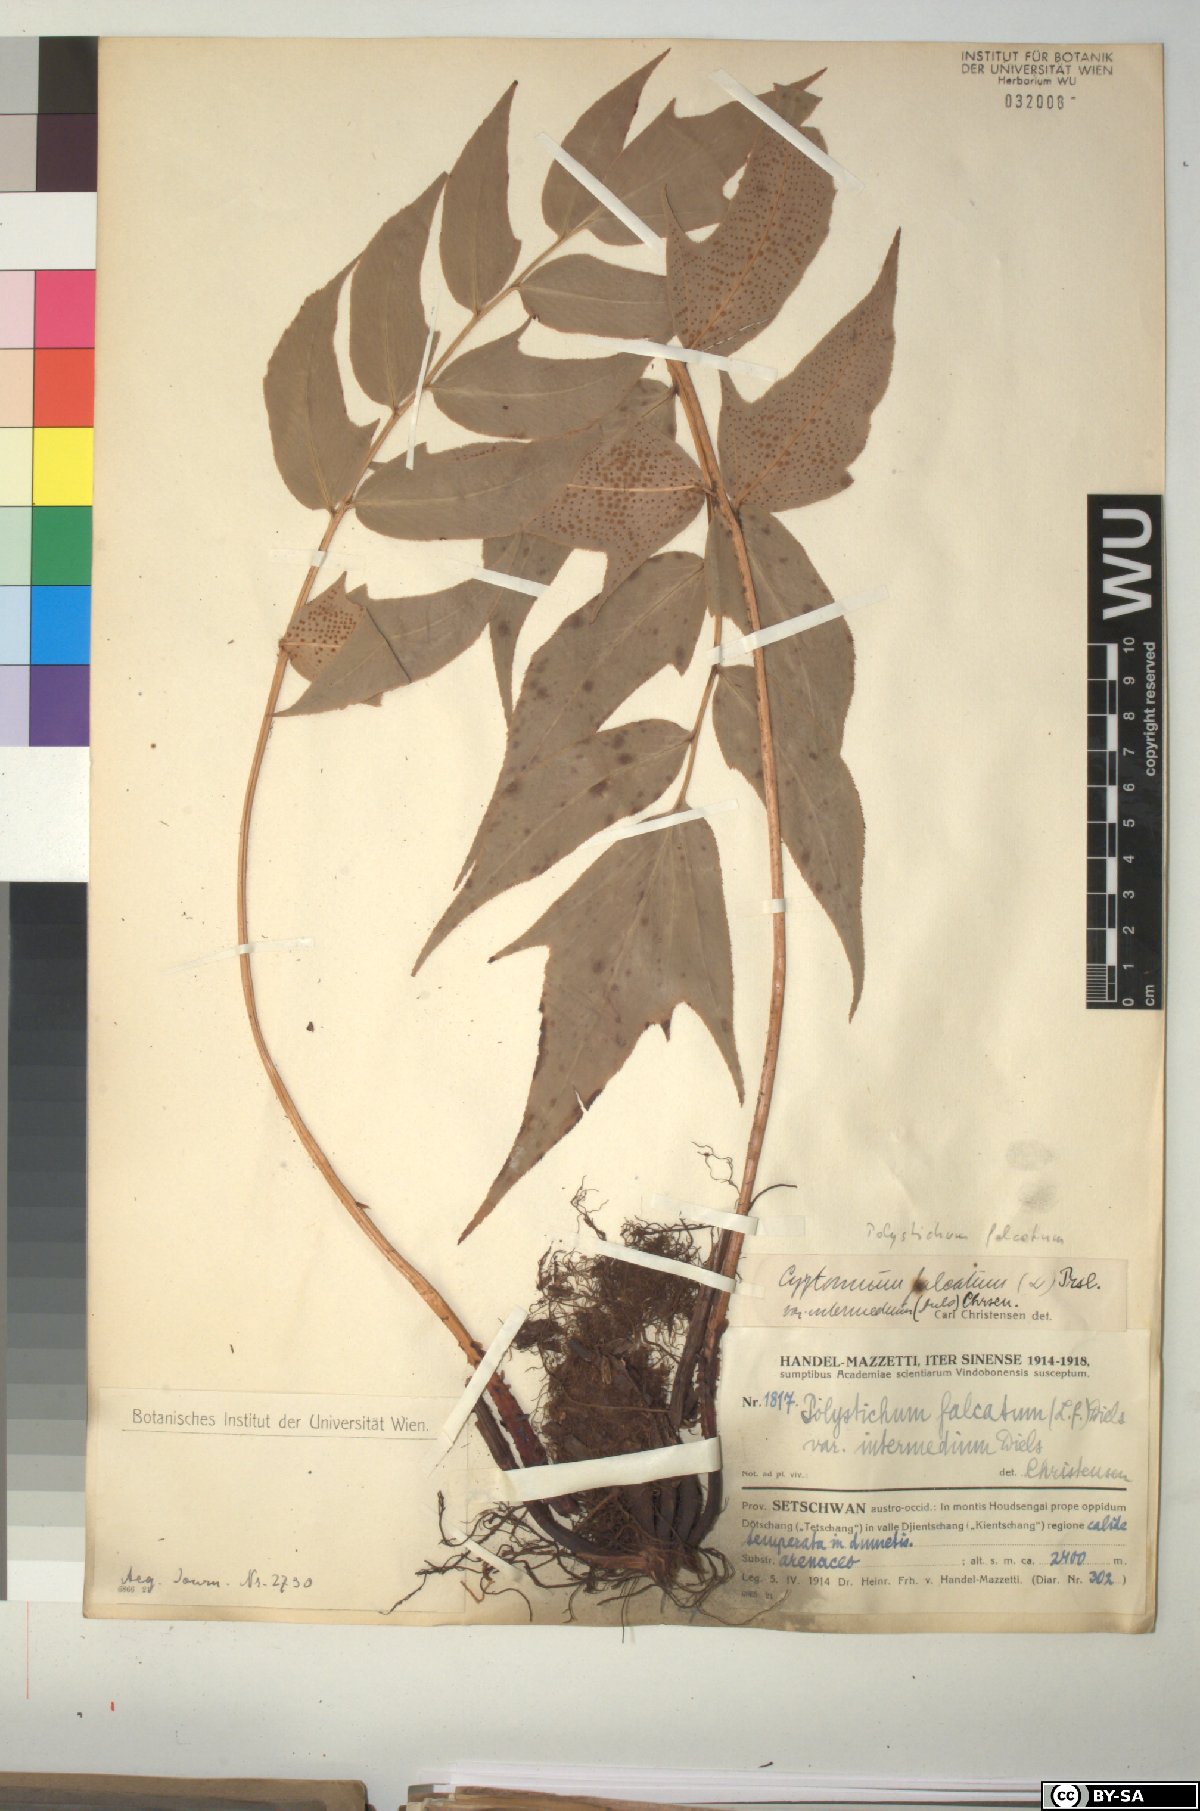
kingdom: Plantae
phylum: Tracheophyta
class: Polypodiopsida
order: Polypodiales
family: Dryopteridaceae
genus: Cyrtomium
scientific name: Cyrtomium falcatum
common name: House holly-fern
